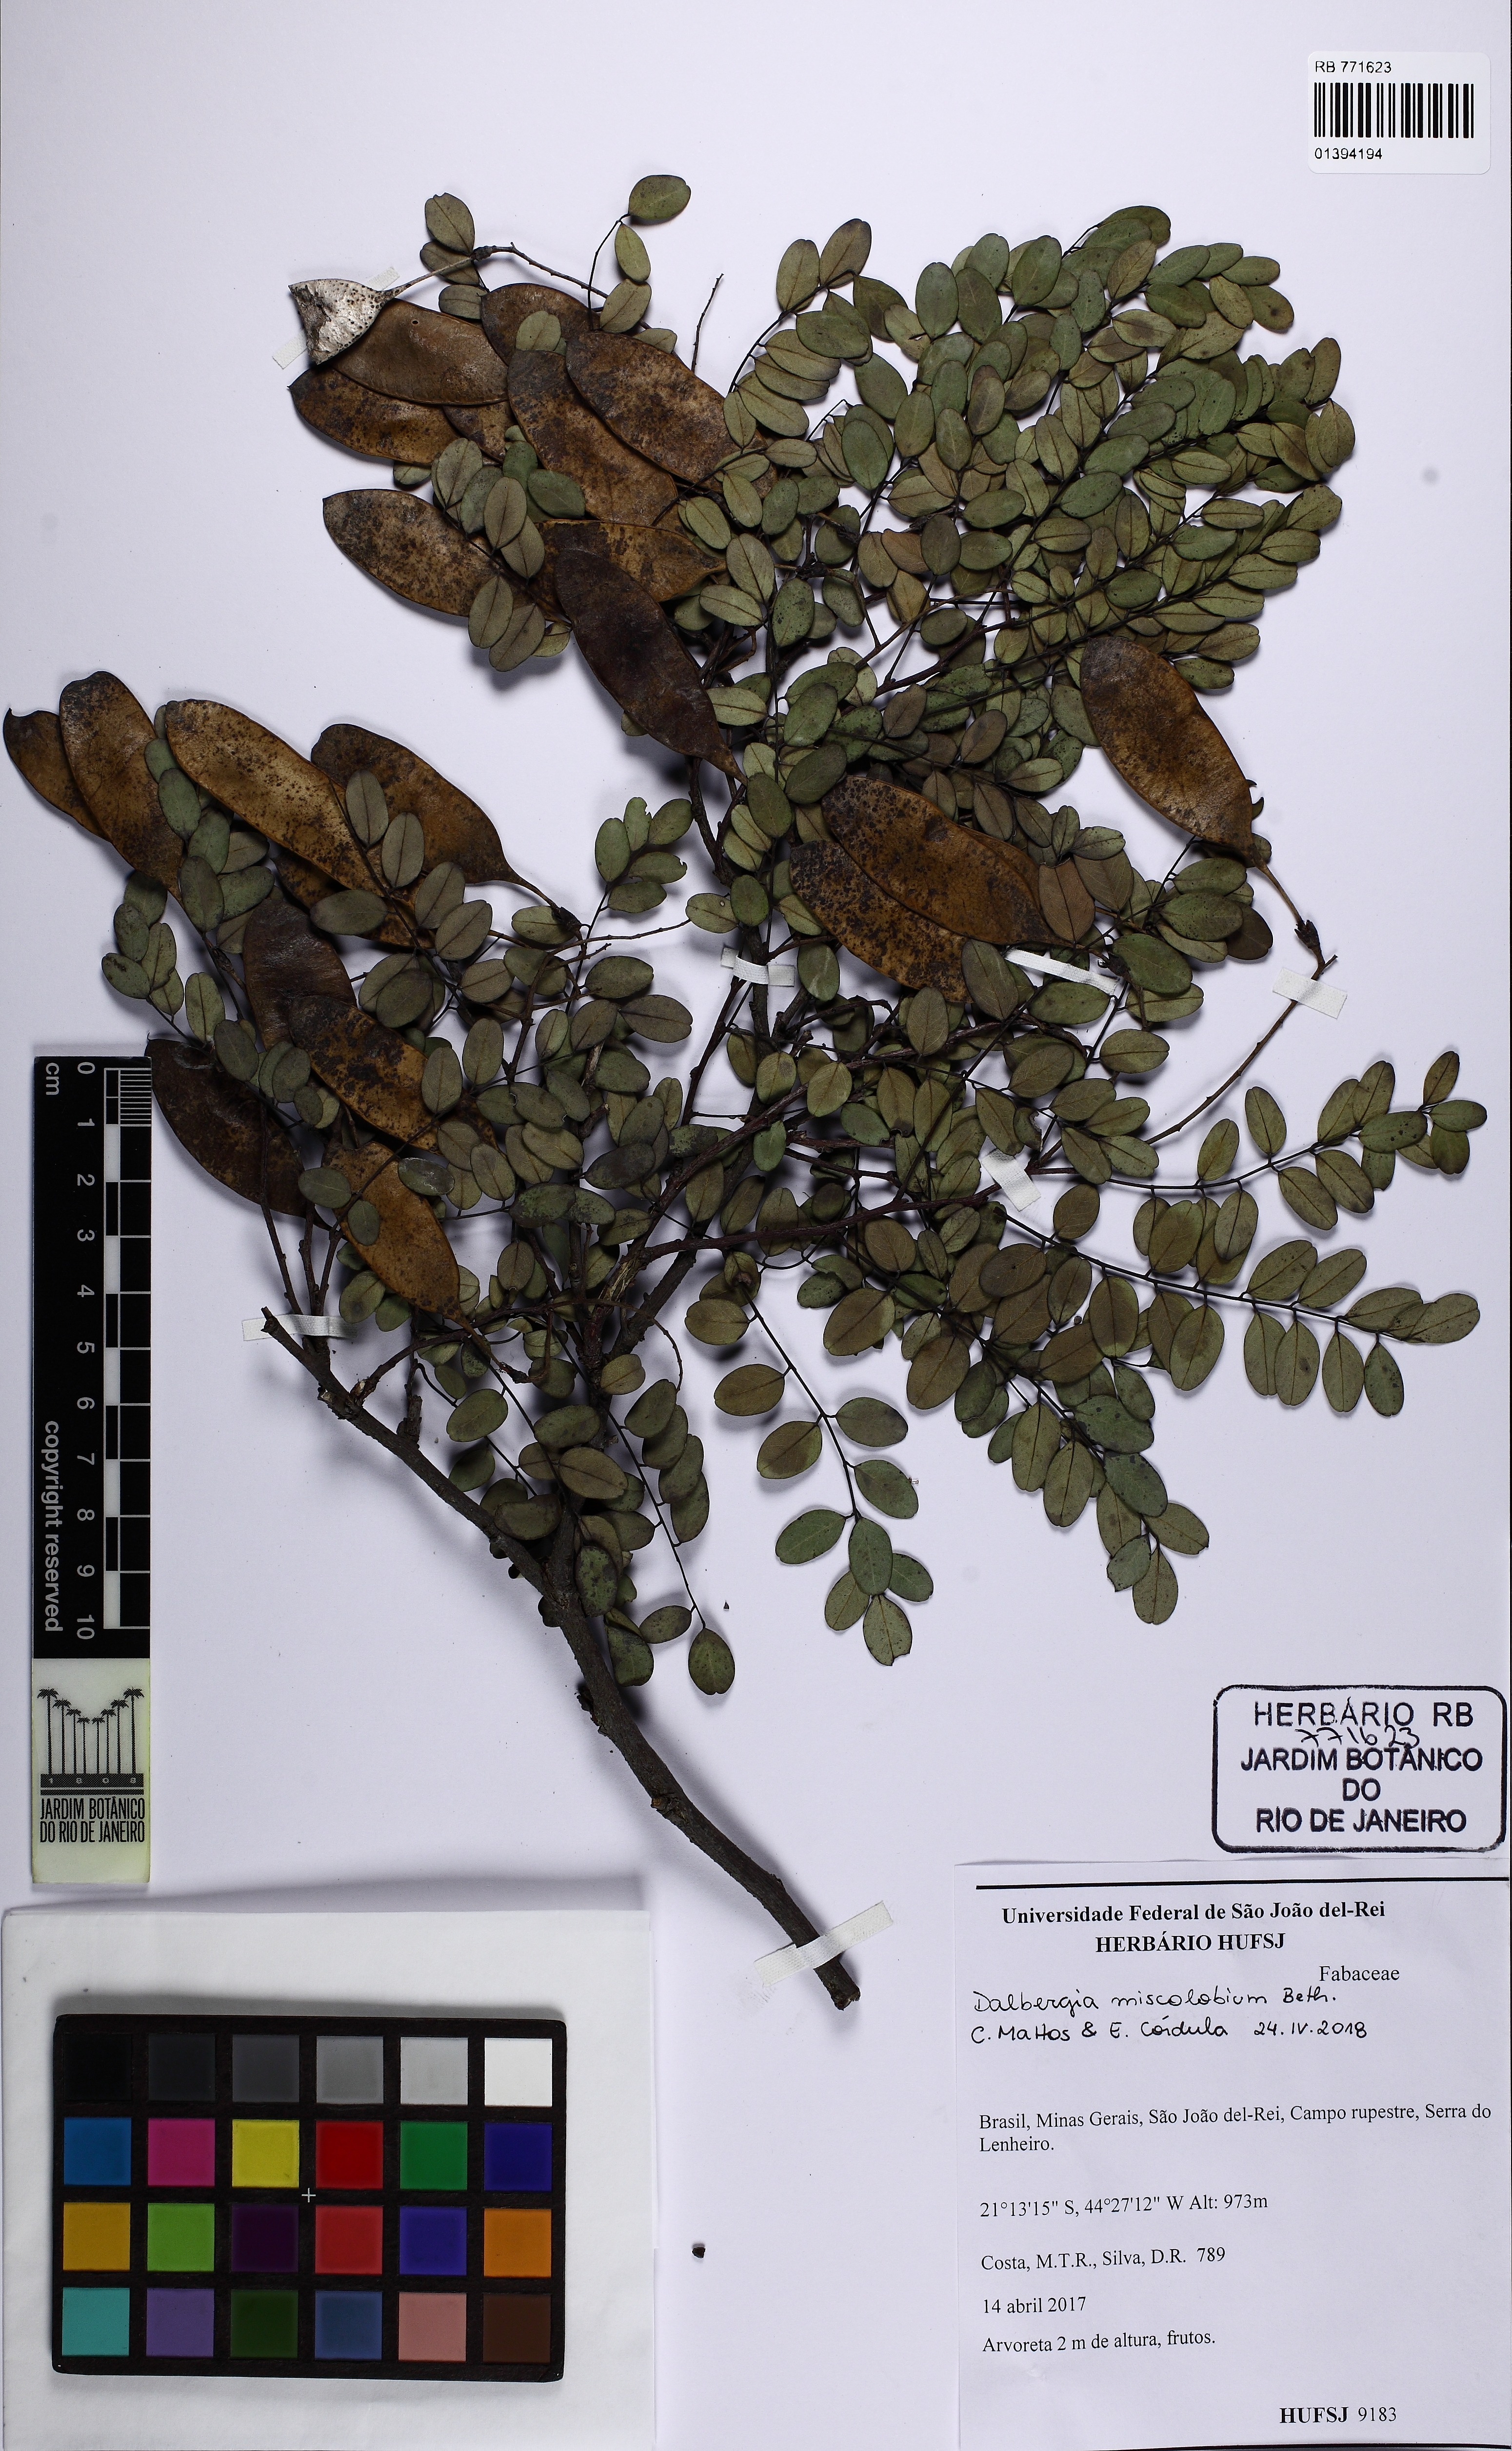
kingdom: Plantae
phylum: Tracheophyta
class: Magnoliopsida
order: Fabales
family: Fabaceae
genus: Dalbergia
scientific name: Dalbergia miscolobium
